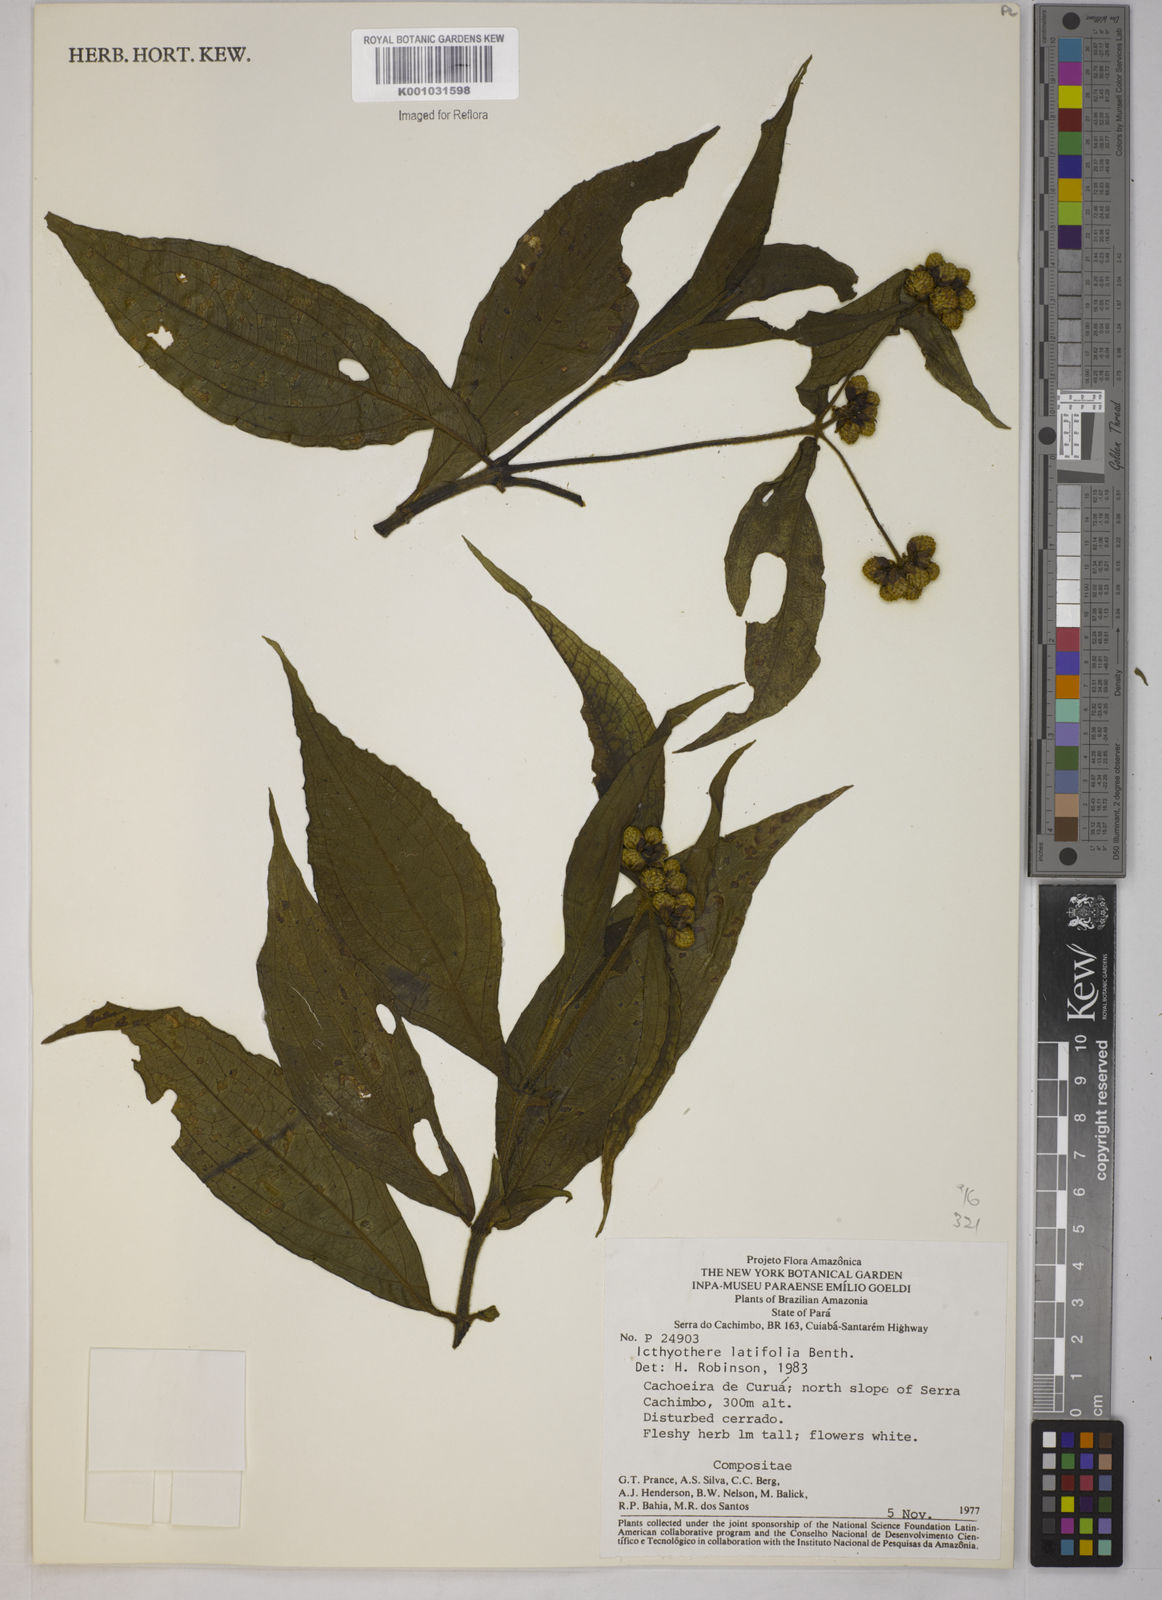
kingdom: Plantae
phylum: Tracheophyta
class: Magnoliopsida
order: Asterales
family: Asteraceae
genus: Ichthyothere
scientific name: Ichthyothere latifolia
